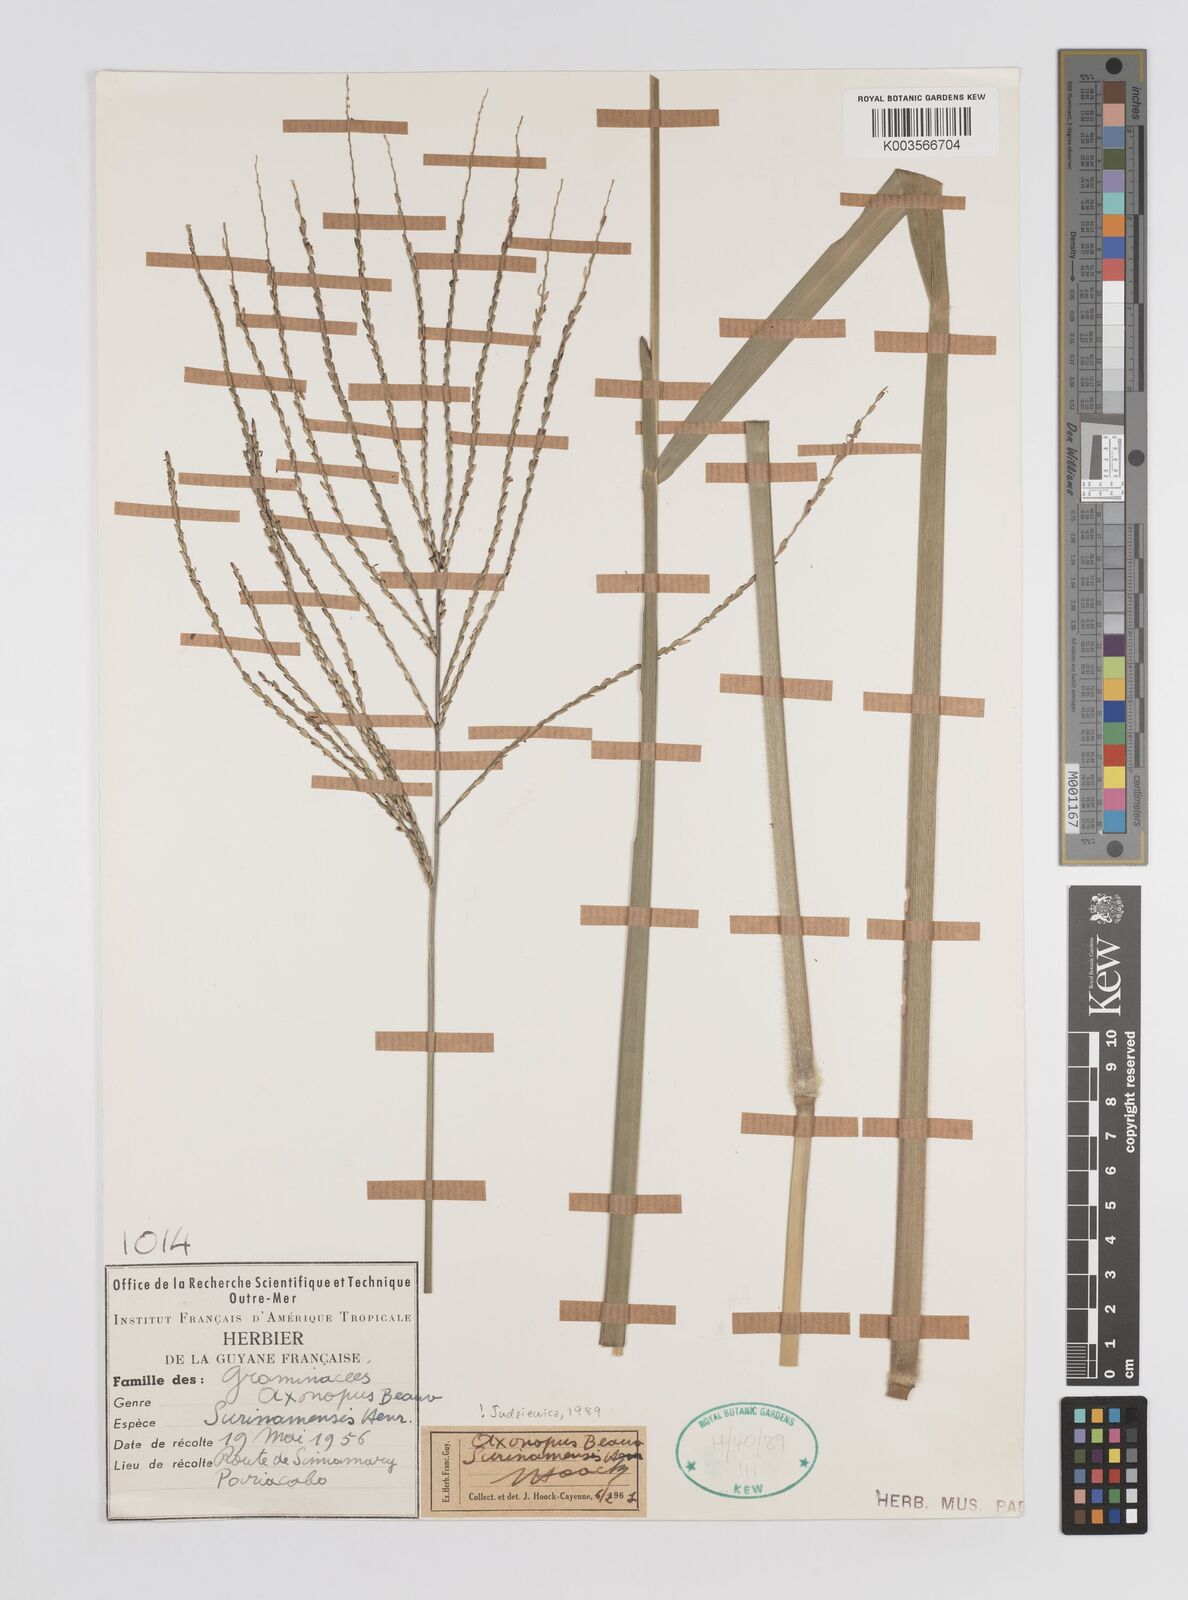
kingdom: Plantae
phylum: Tracheophyta
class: Liliopsida
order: Poales
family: Poaceae
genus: Axonopus
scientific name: Axonopus surinamensis
